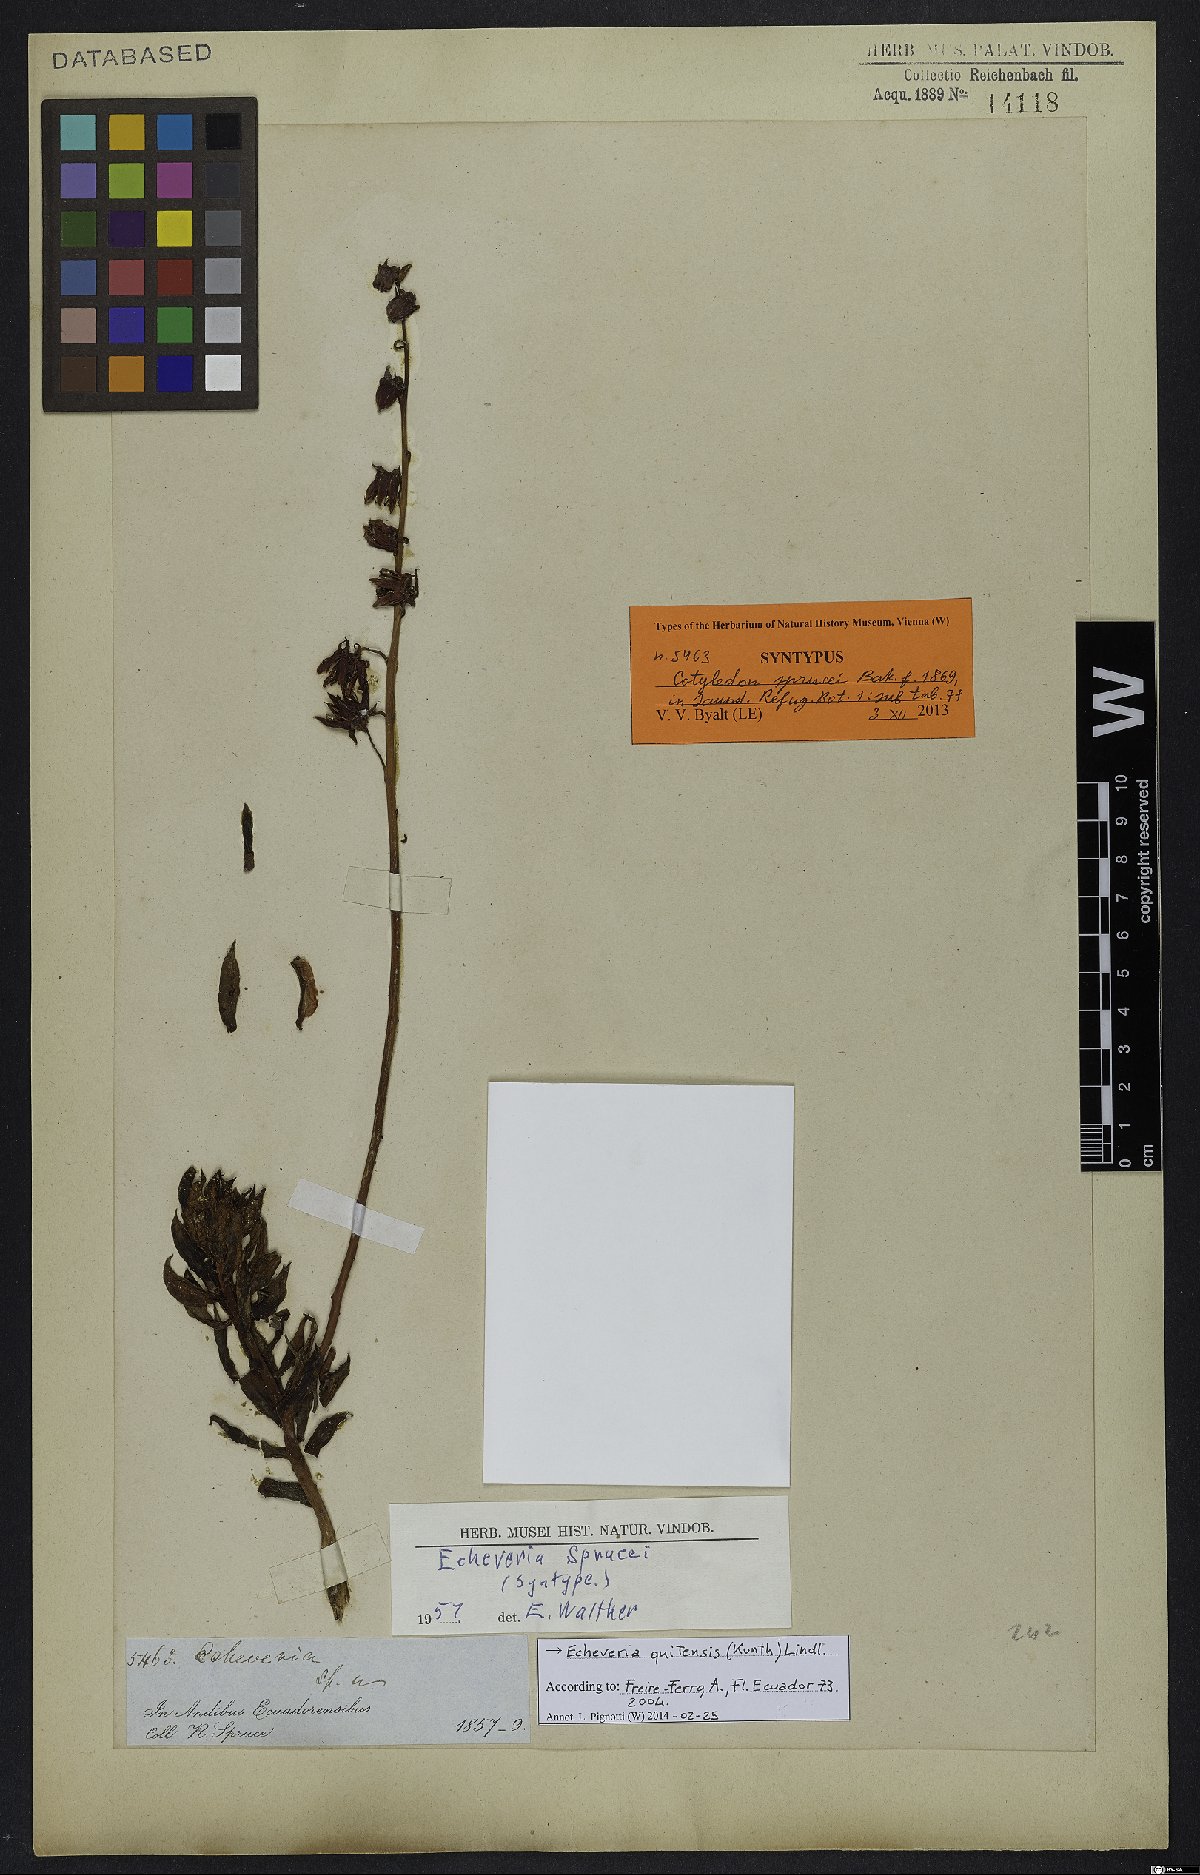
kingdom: Plantae
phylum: Tracheophyta
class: Magnoliopsida
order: Saxifragales
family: Crassulaceae
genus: Echeveria
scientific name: Echeveria quitensis
